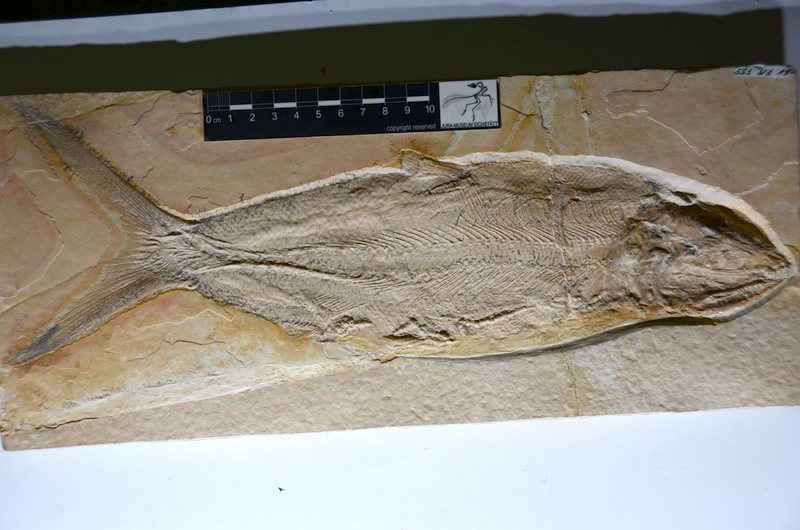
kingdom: Animalia
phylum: Chordata
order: Amiiformes
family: Caturidae
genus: Caturus
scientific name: Caturus furcatus
